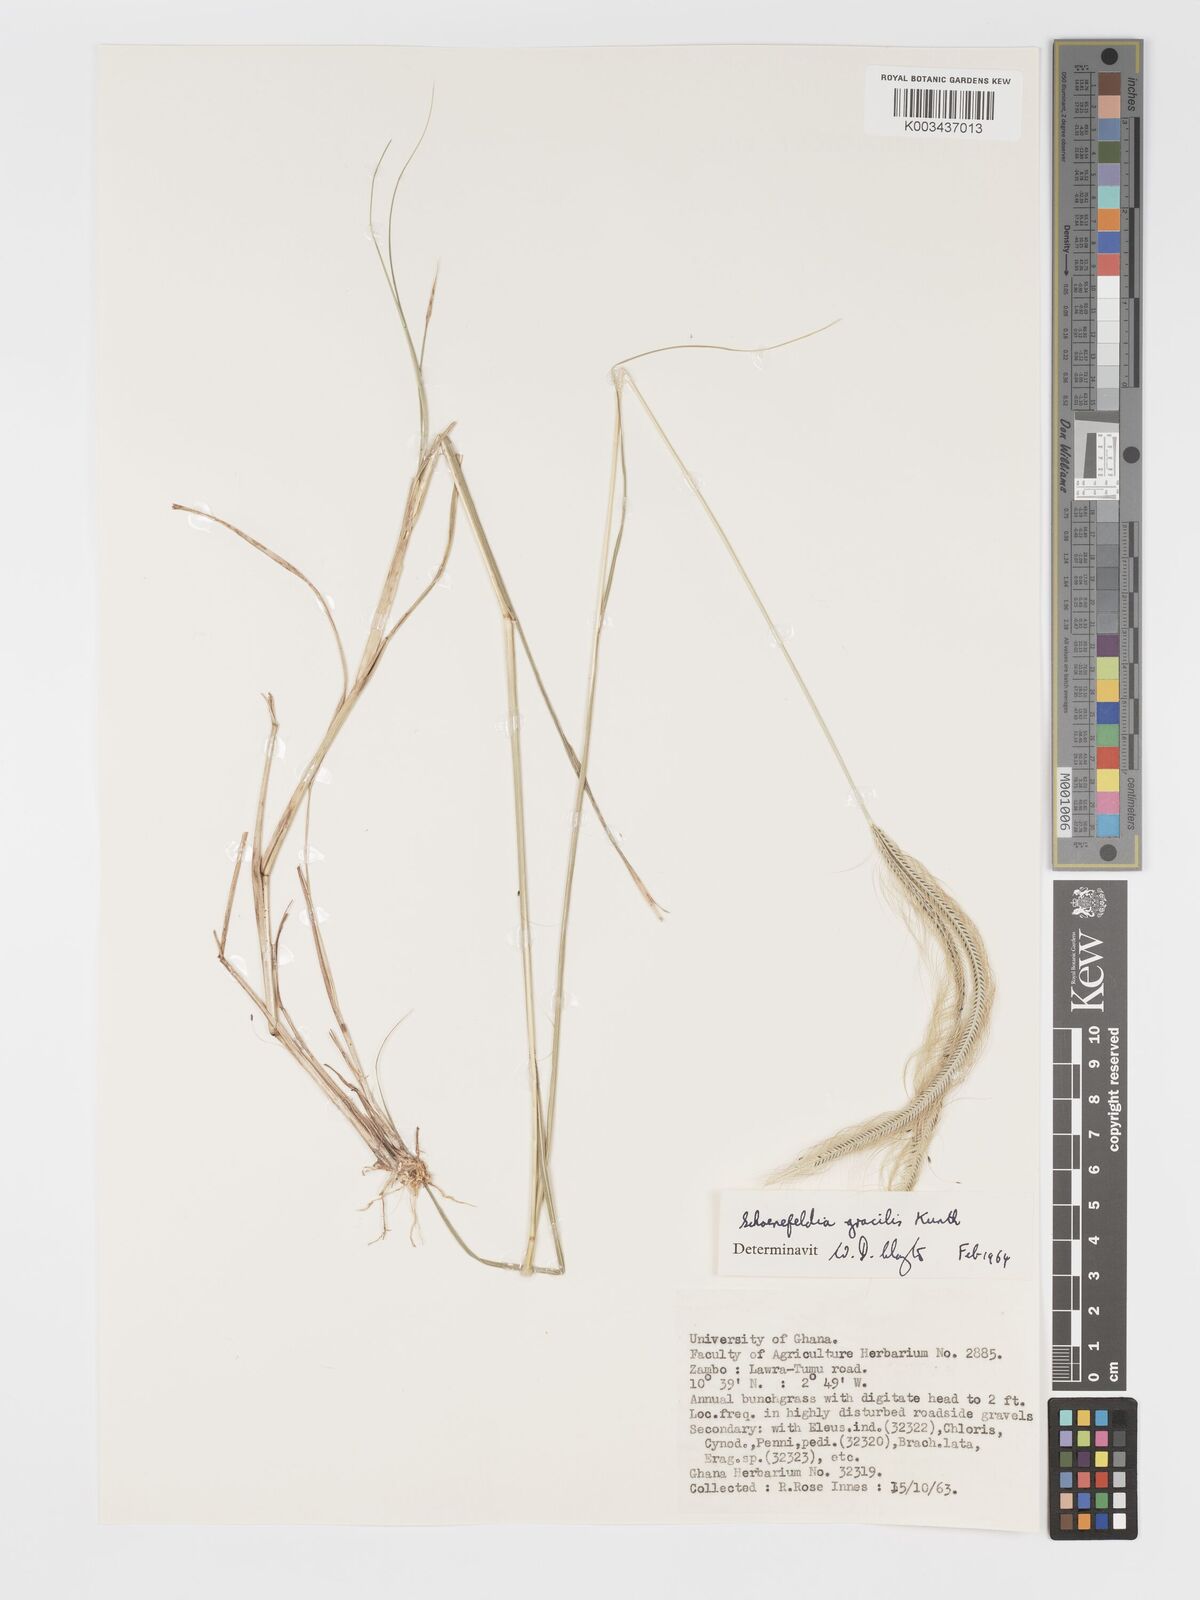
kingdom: Plantae
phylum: Tracheophyta
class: Liliopsida
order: Poales
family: Poaceae
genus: Schoenefeldia
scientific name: Schoenefeldia gracilis
